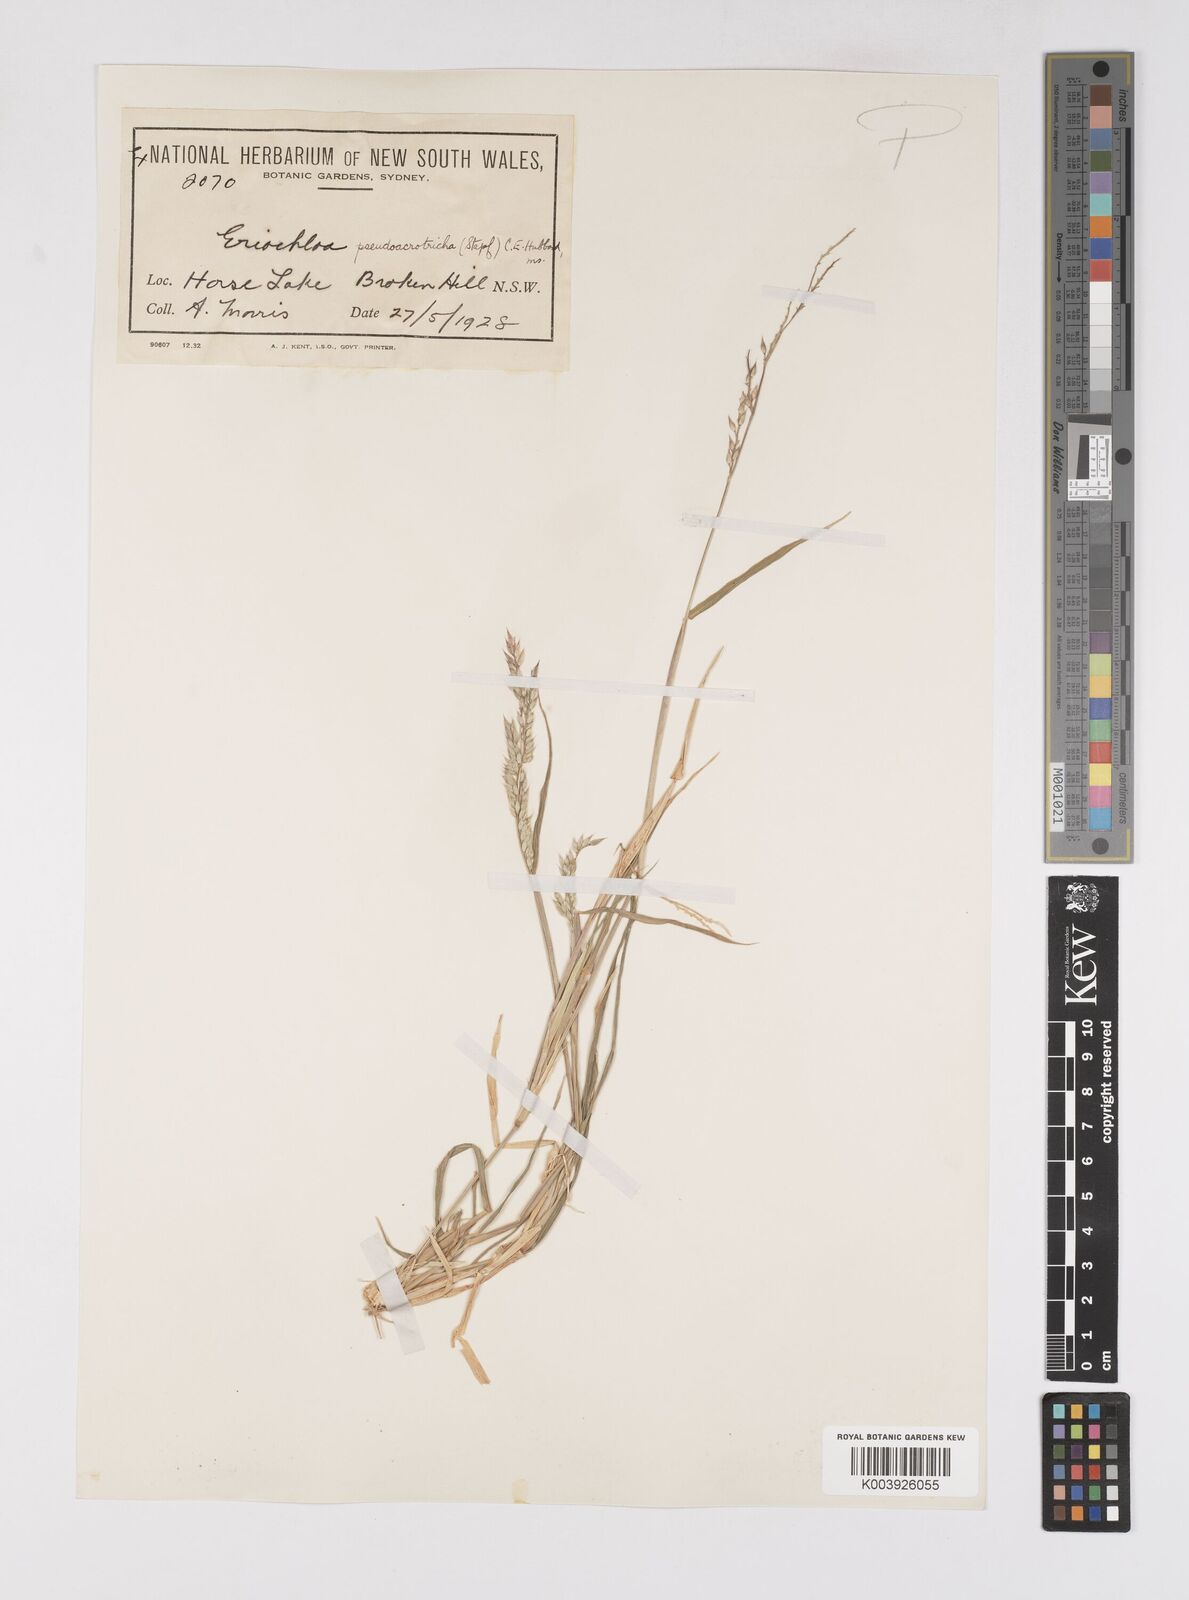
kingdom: Plantae
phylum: Tracheophyta
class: Liliopsida
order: Poales
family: Poaceae
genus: Eriochloa
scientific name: Eriochloa pseudoacrotricha
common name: Perennial cup-grass
